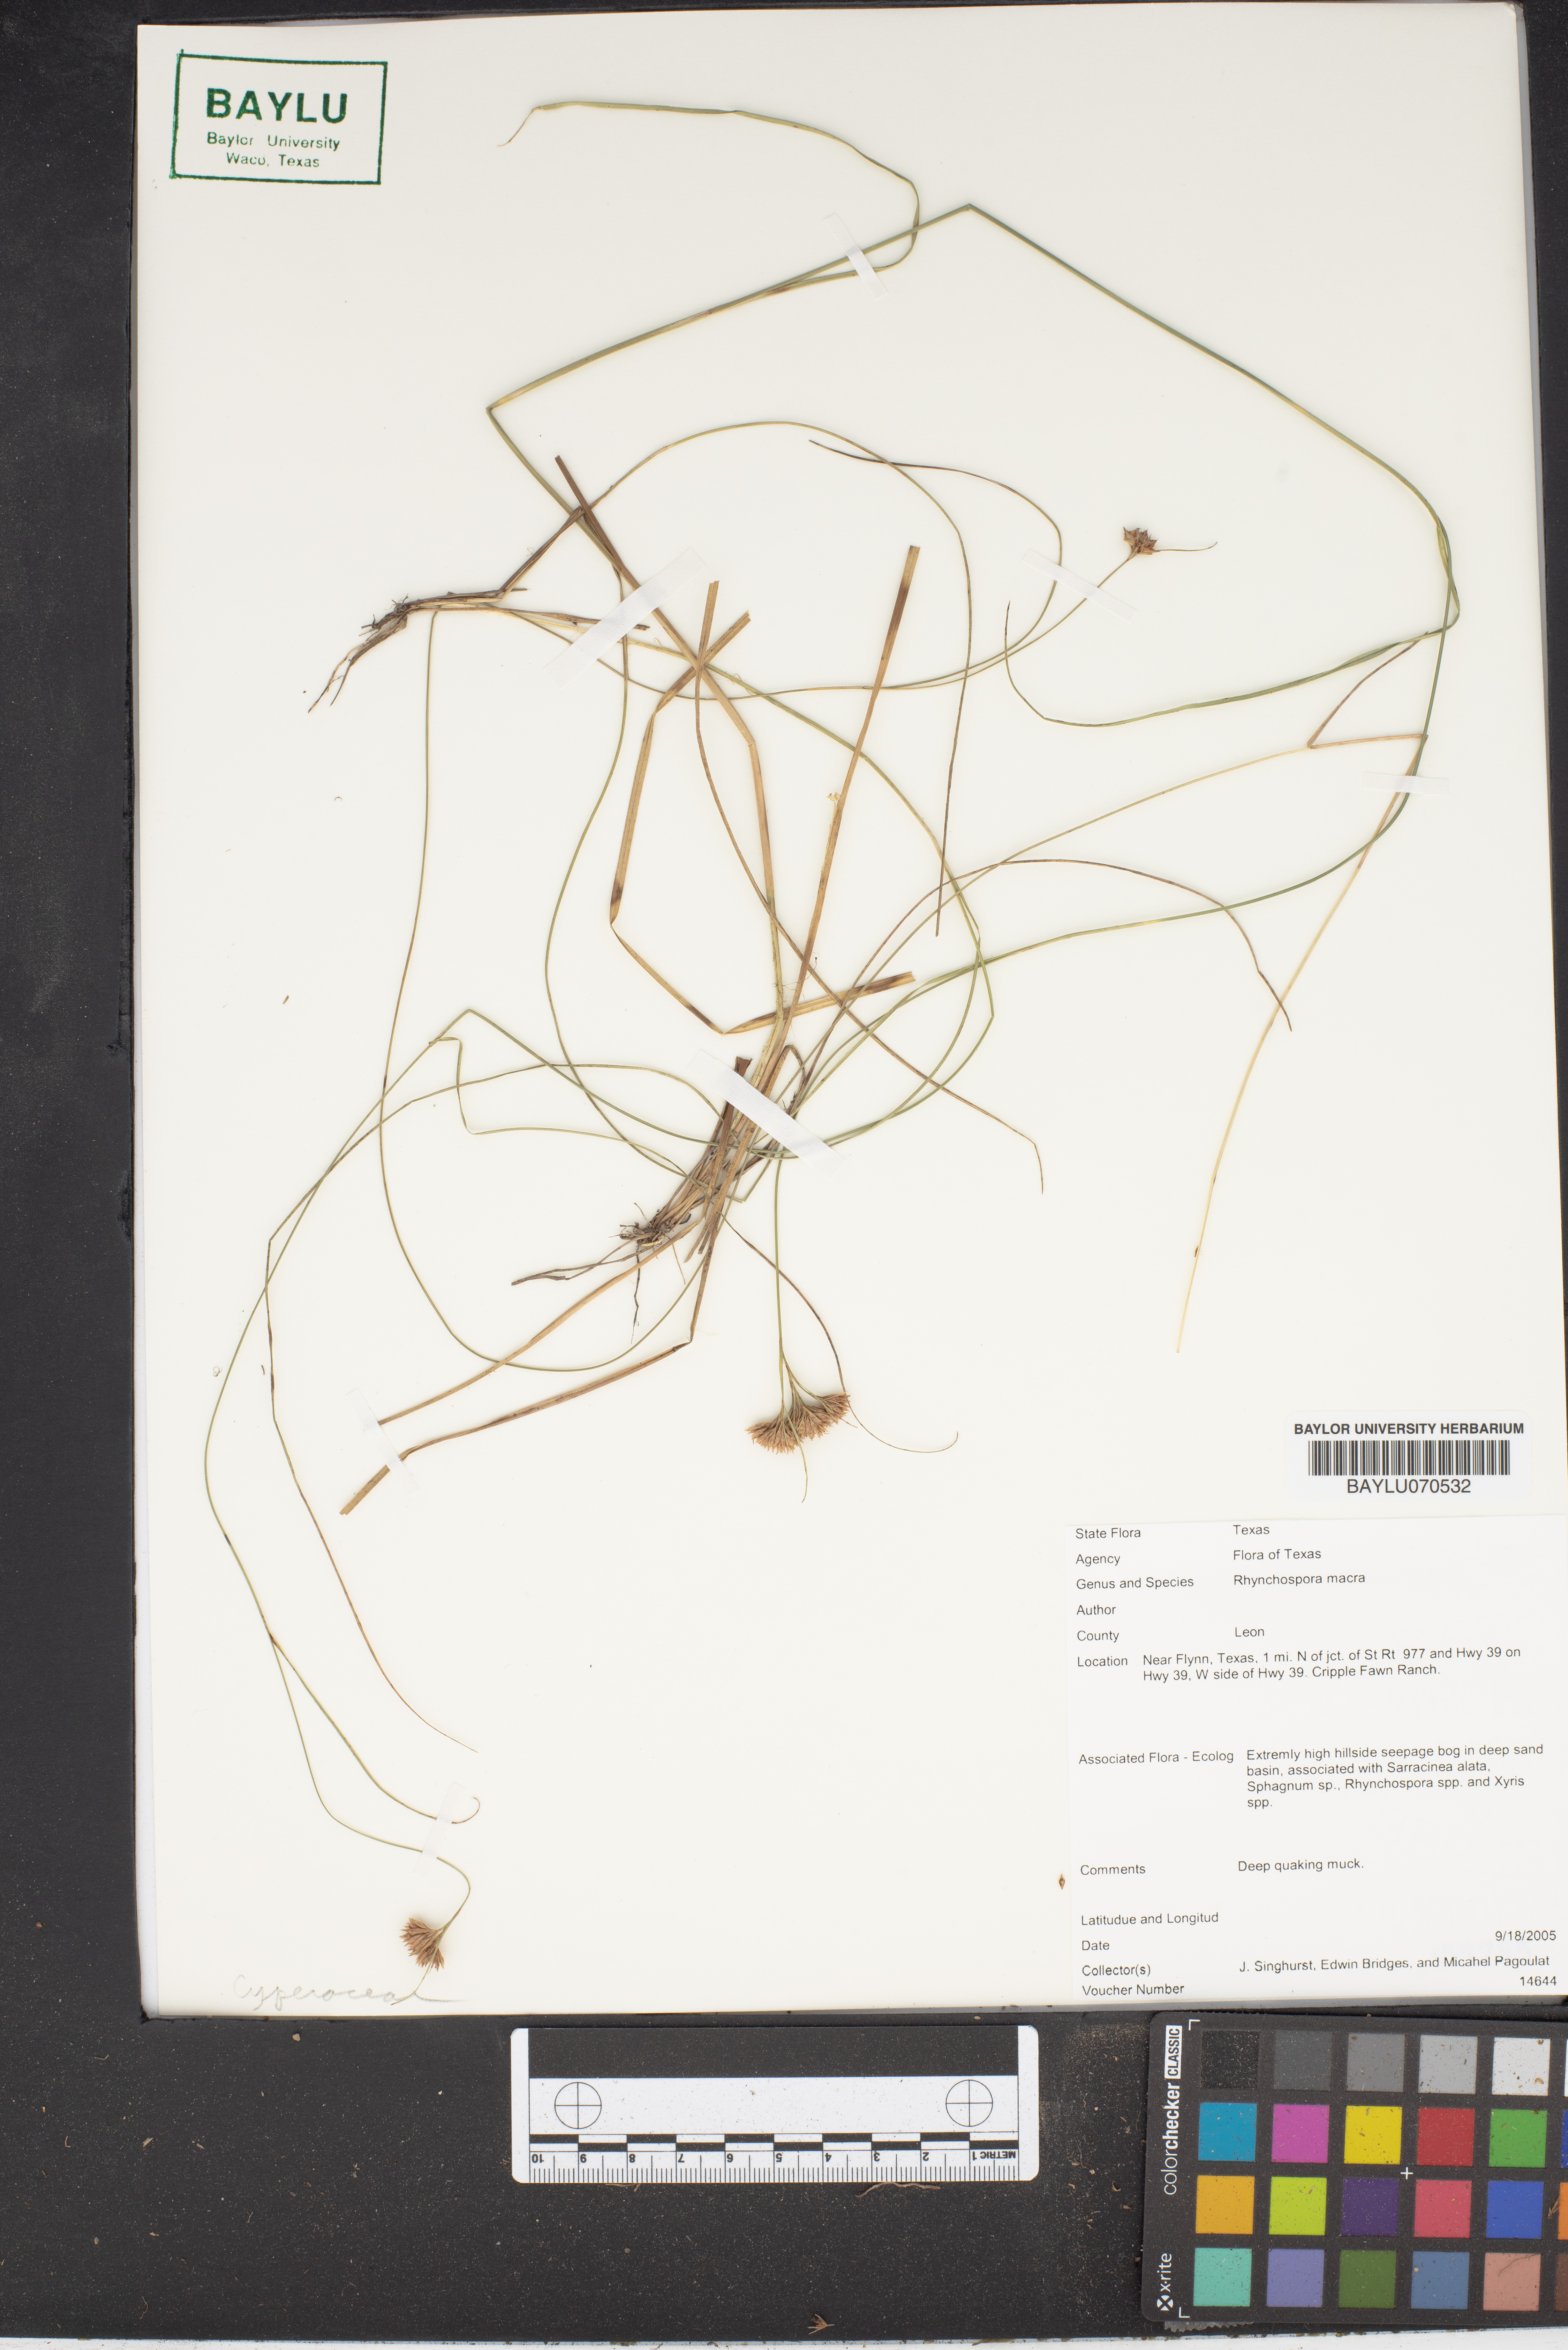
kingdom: Plantae
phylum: Tracheophyta
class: Liliopsida
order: Poales
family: Cyperaceae
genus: Rhynchospora
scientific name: Rhynchospora macra
